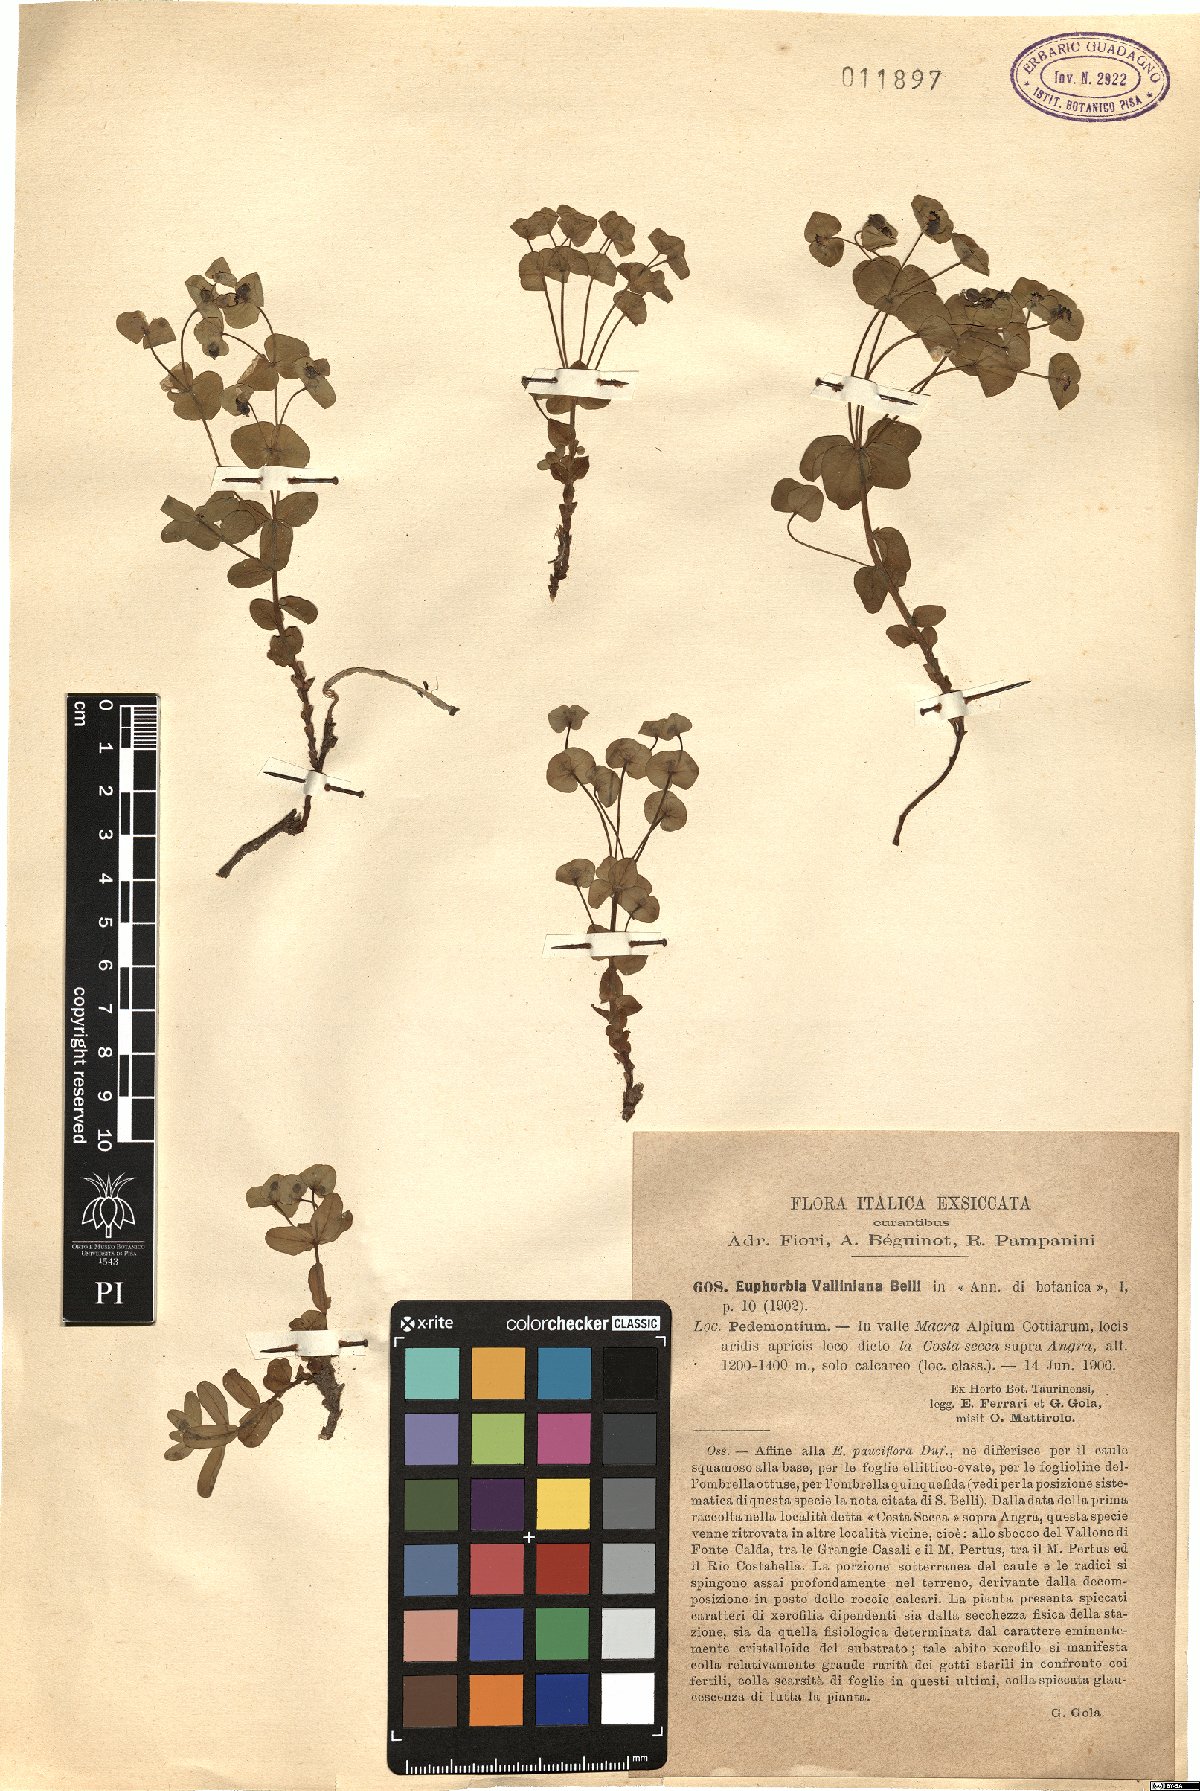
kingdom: Plantae
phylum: Tracheophyta
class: Magnoliopsida
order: Malpighiales
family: Euphorbiaceae
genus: Euphorbia
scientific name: Euphorbia variabilis
